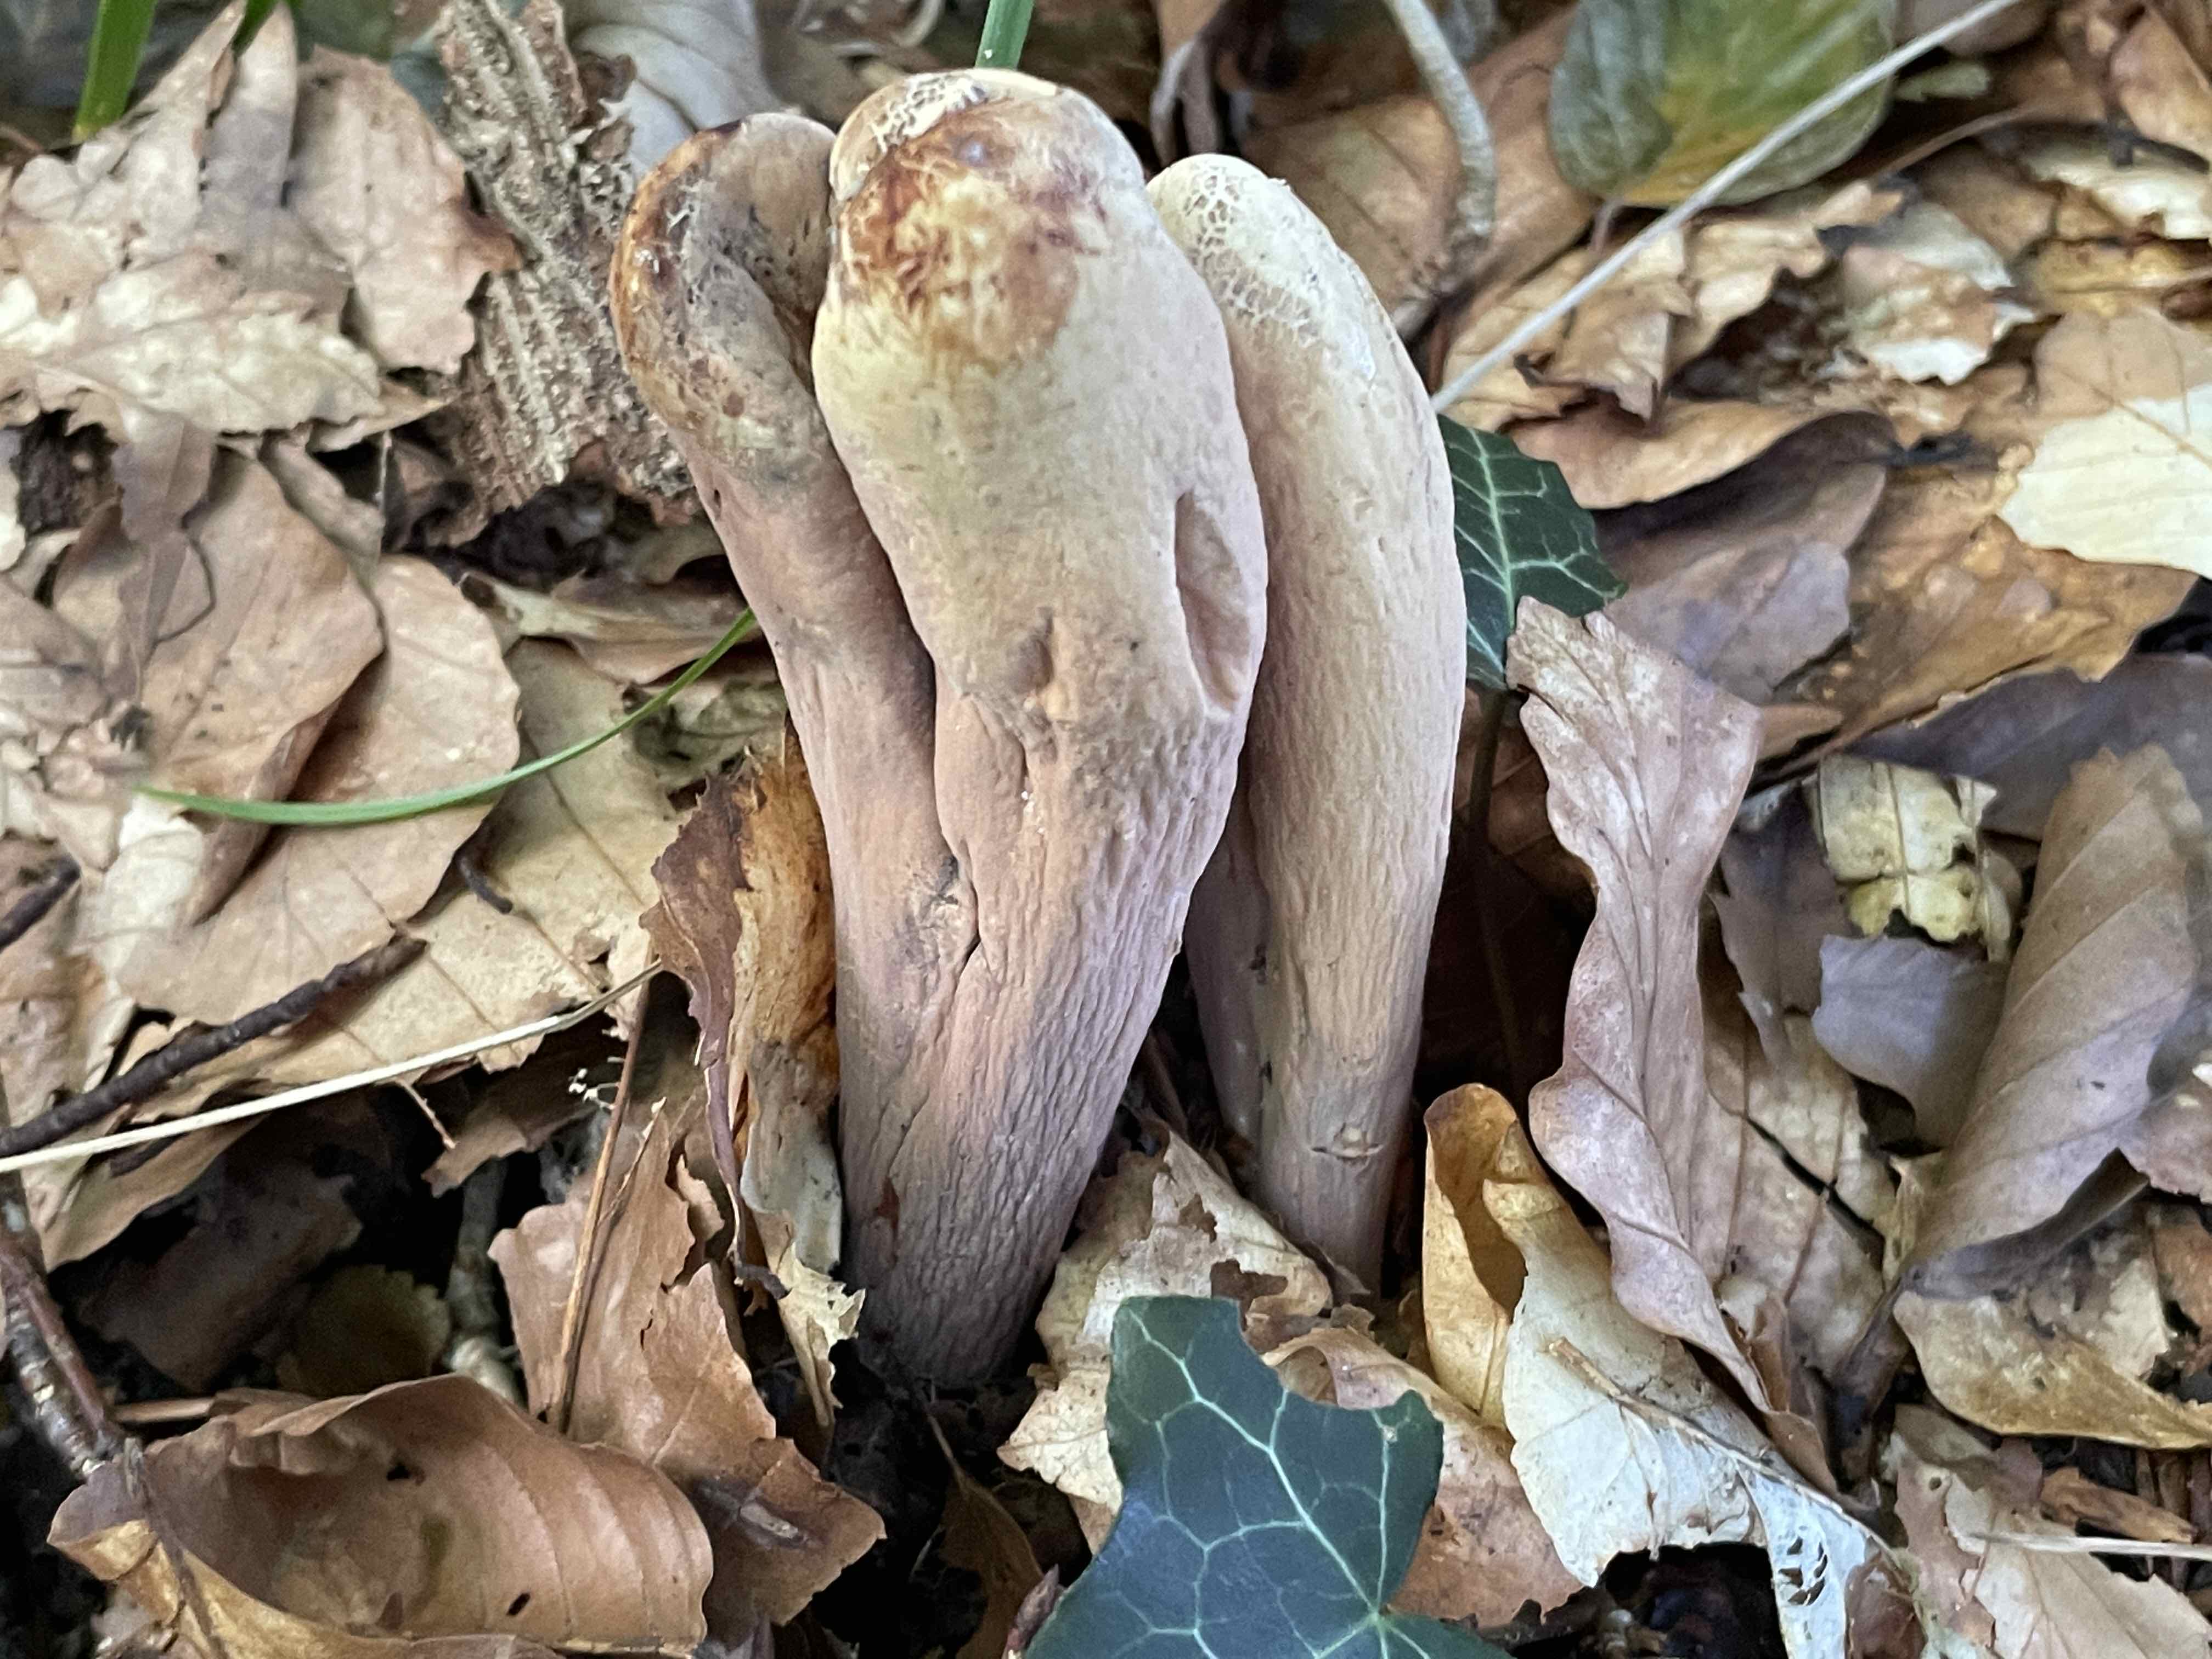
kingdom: Fungi
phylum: Basidiomycota
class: Agaricomycetes
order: Gomphales
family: Clavariadelphaceae
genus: Clavariadelphus
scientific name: Clavariadelphus pistillaris
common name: herkules-kæmpekølle
